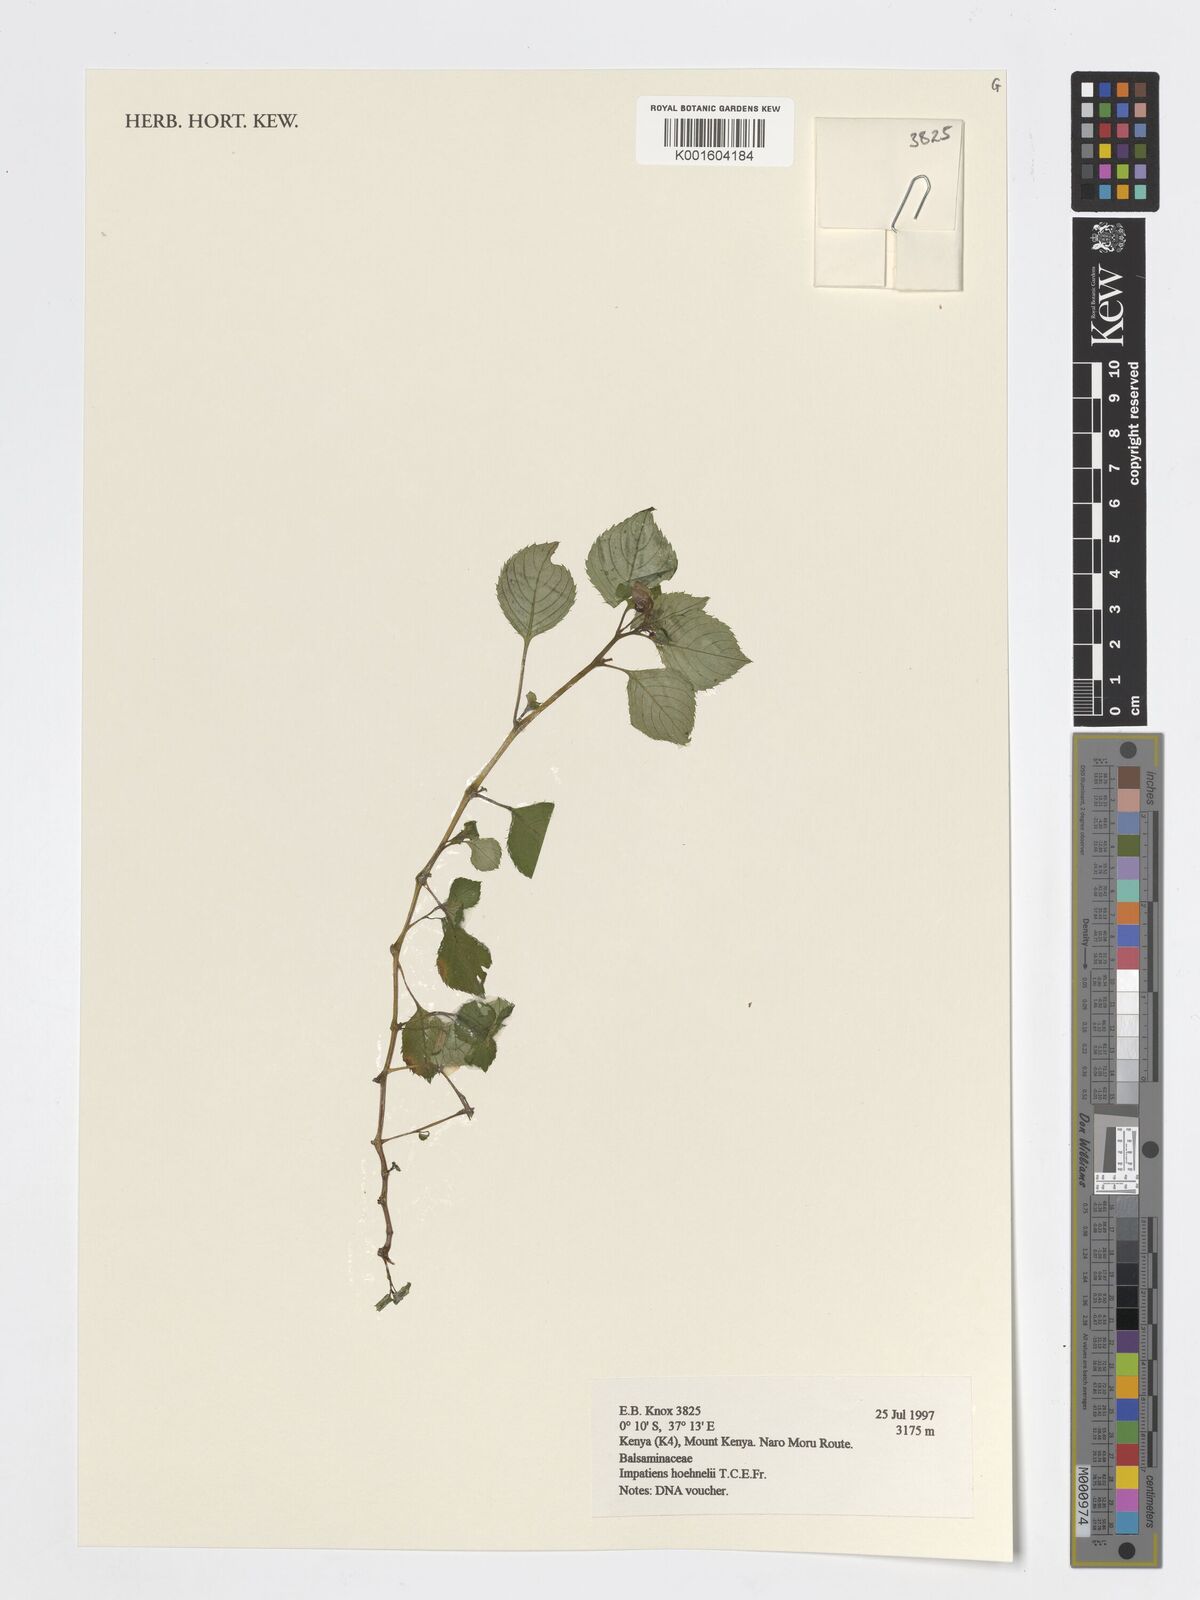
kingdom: Plantae
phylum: Tracheophyta
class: Magnoliopsida
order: Ericales
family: Balsaminaceae
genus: Impatiens
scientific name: Impatiens hoehnelii
